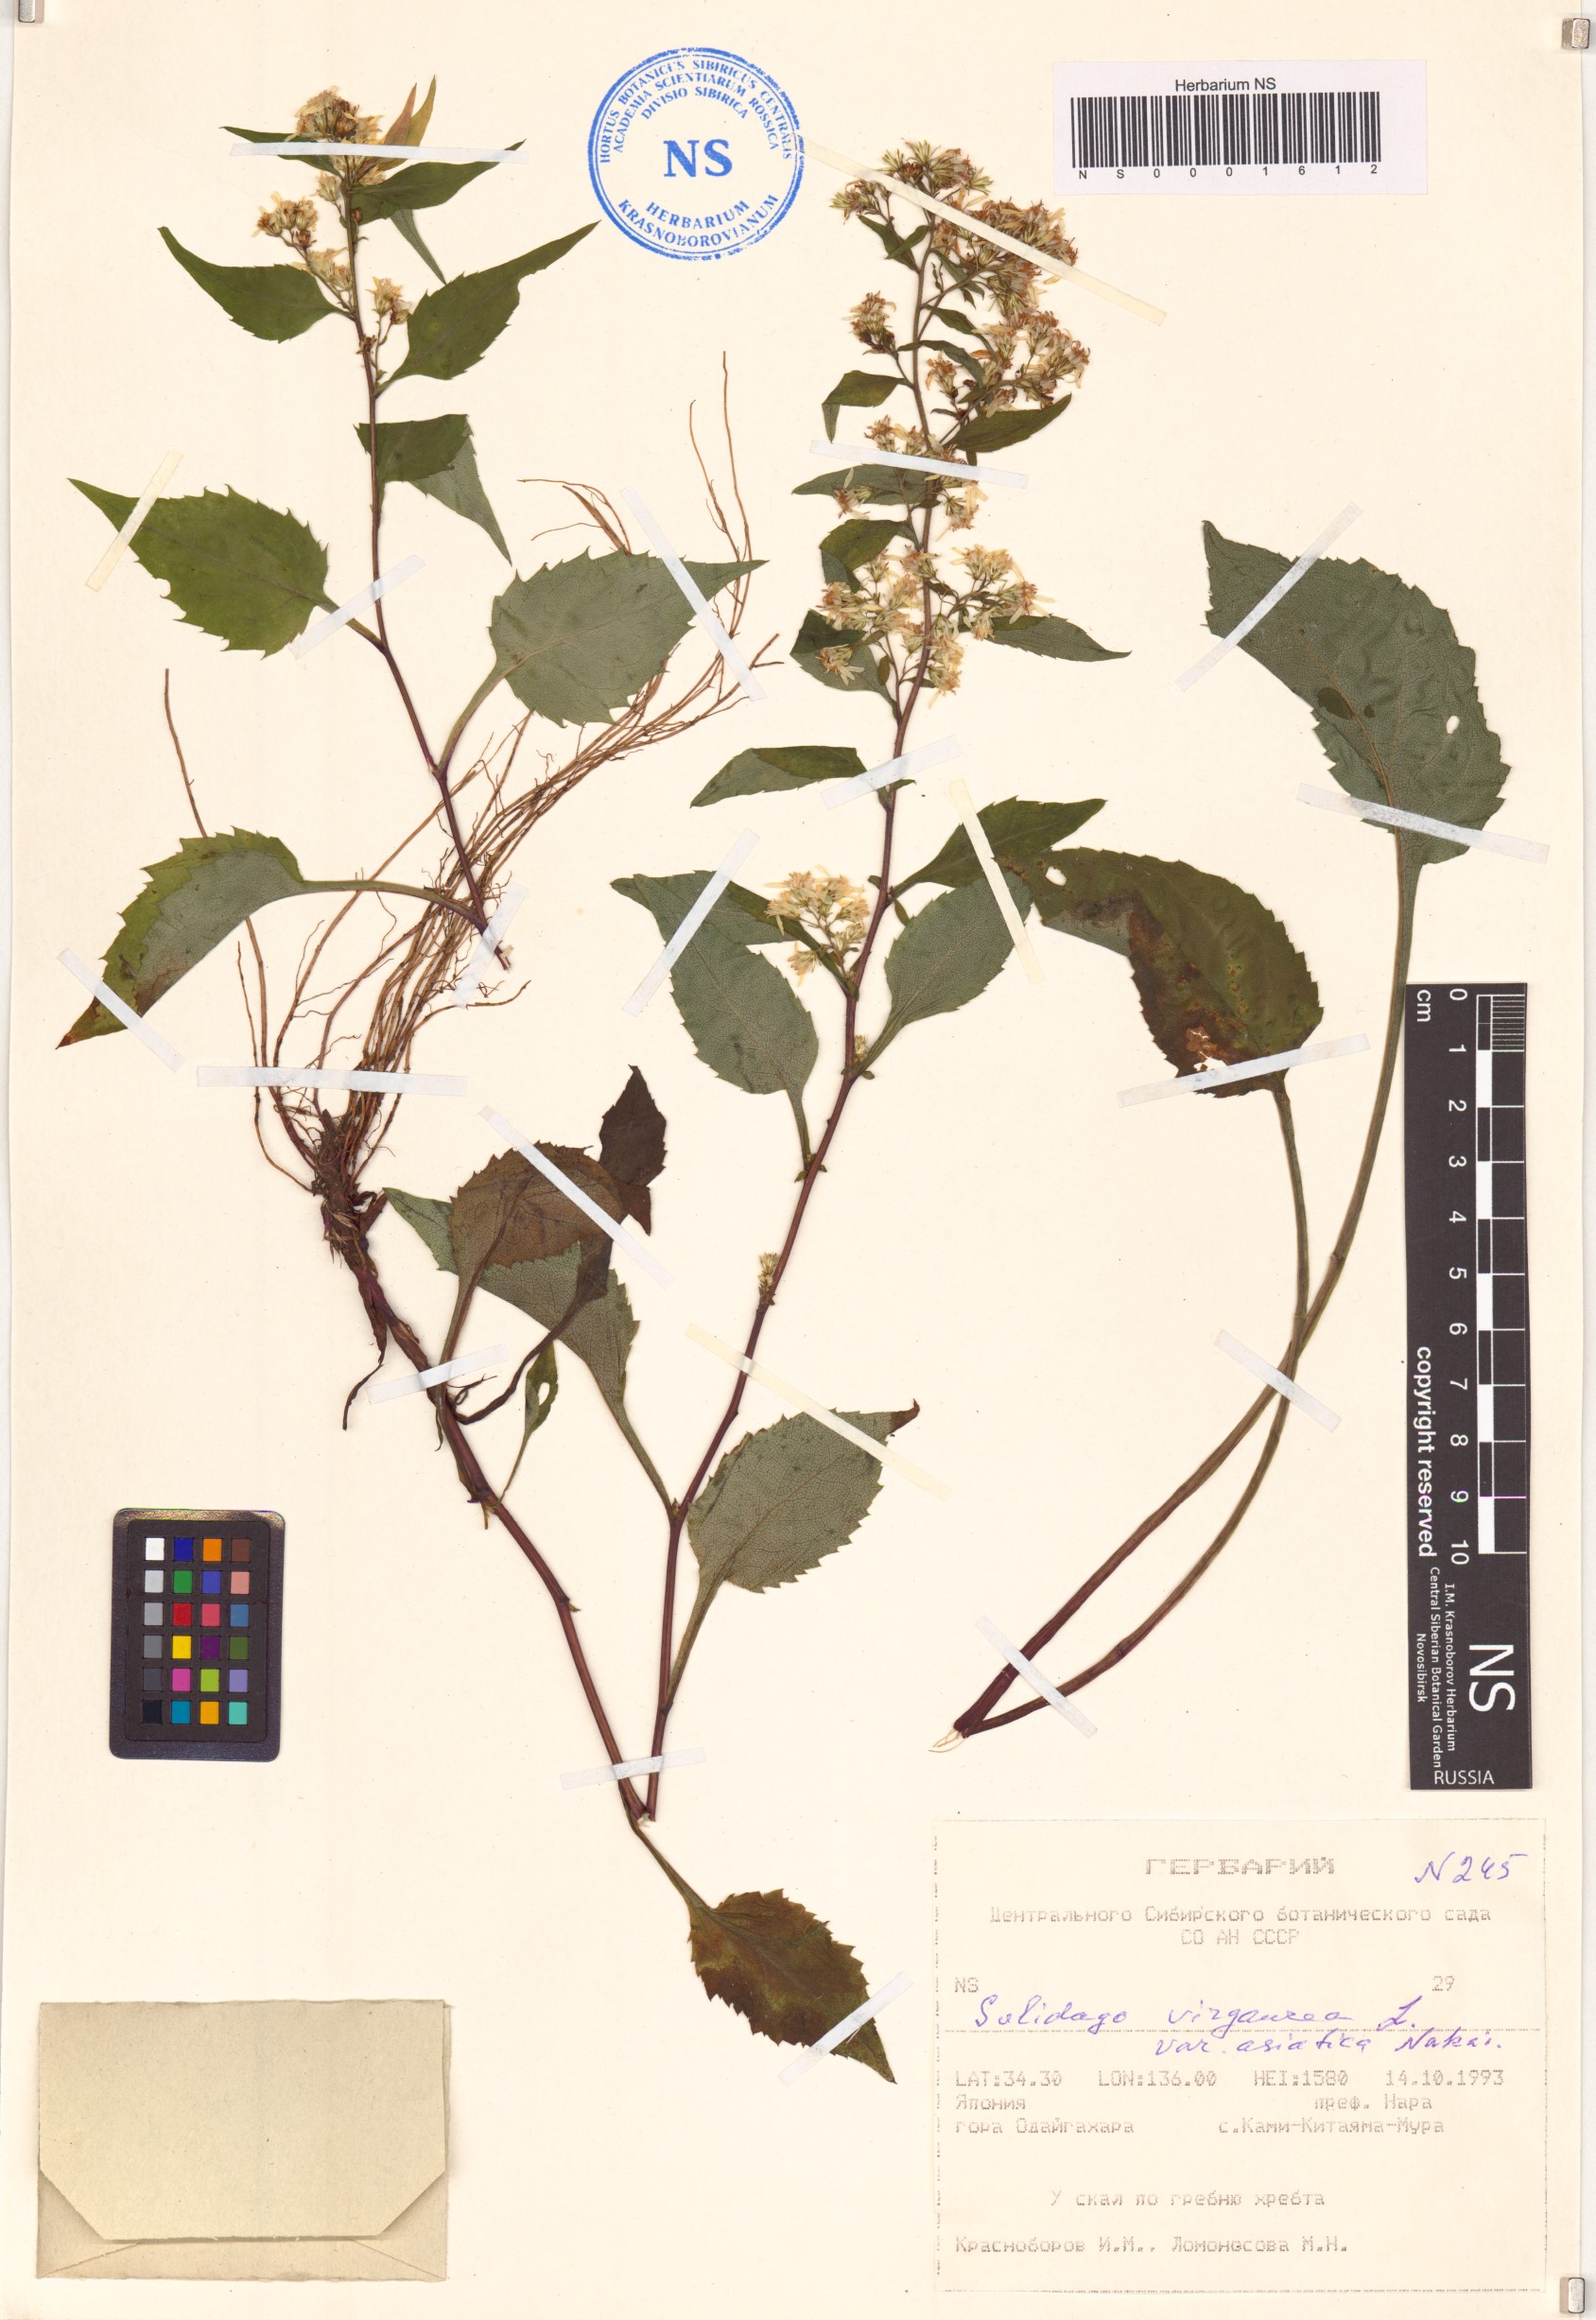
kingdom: Plantae
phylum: Tracheophyta
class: Magnoliopsida
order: Asterales
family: Asteraceae
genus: Solidago
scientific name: Solidago virgaurea
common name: Goldenrod
